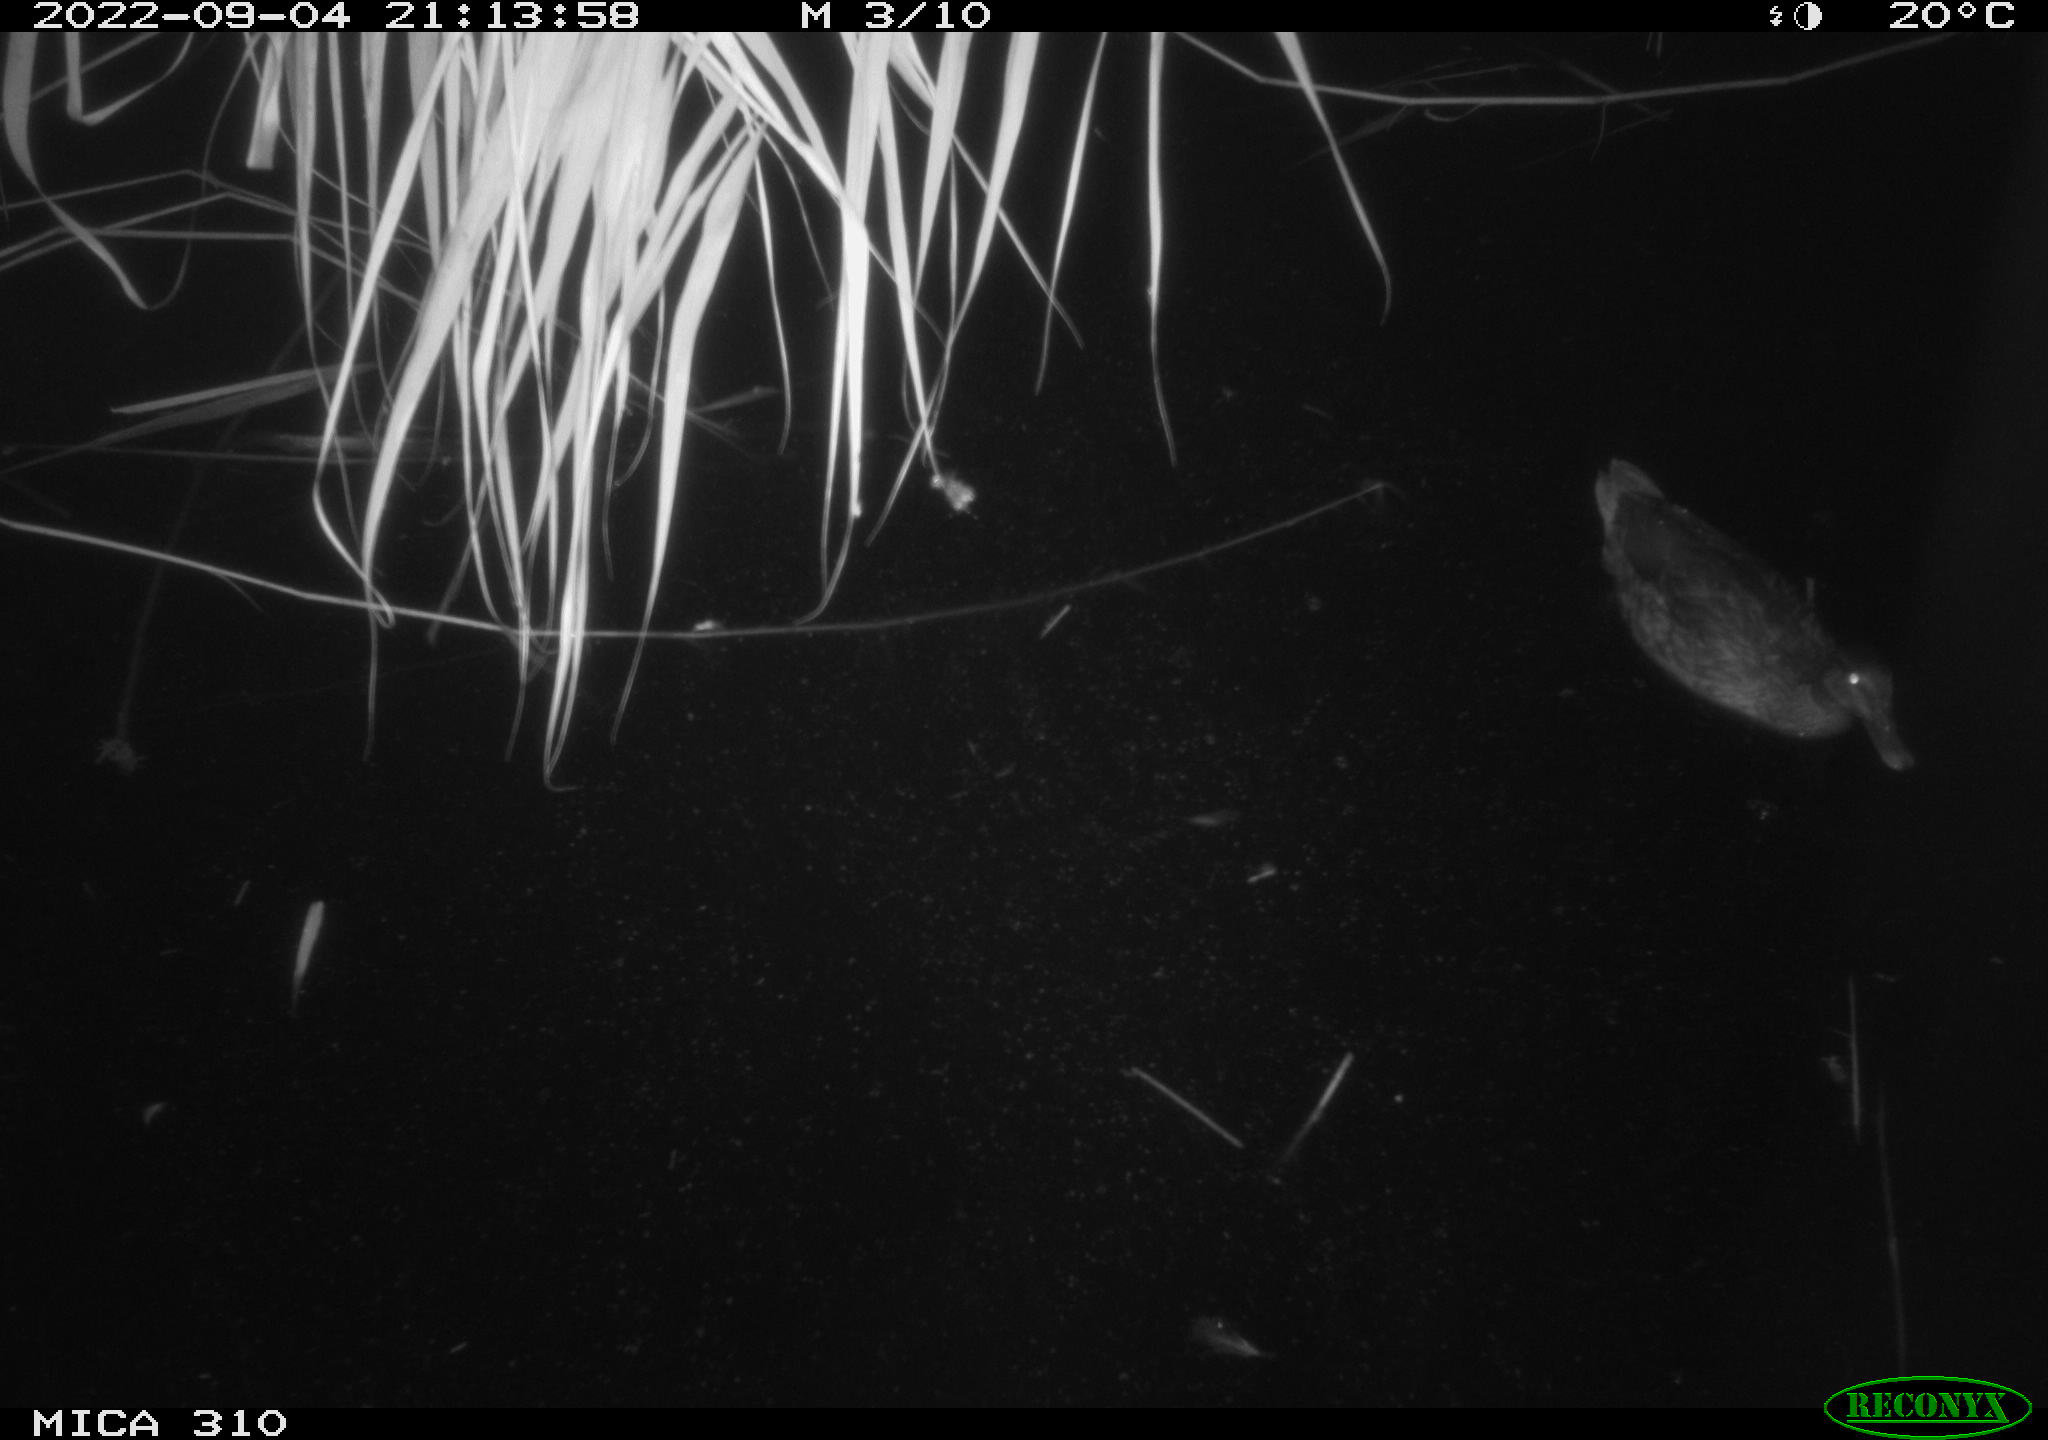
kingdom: Animalia
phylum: Chordata
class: Aves
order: Gruiformes
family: Rallidae
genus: Gallinula
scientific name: Gallinula chloropus
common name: Common moorhen
